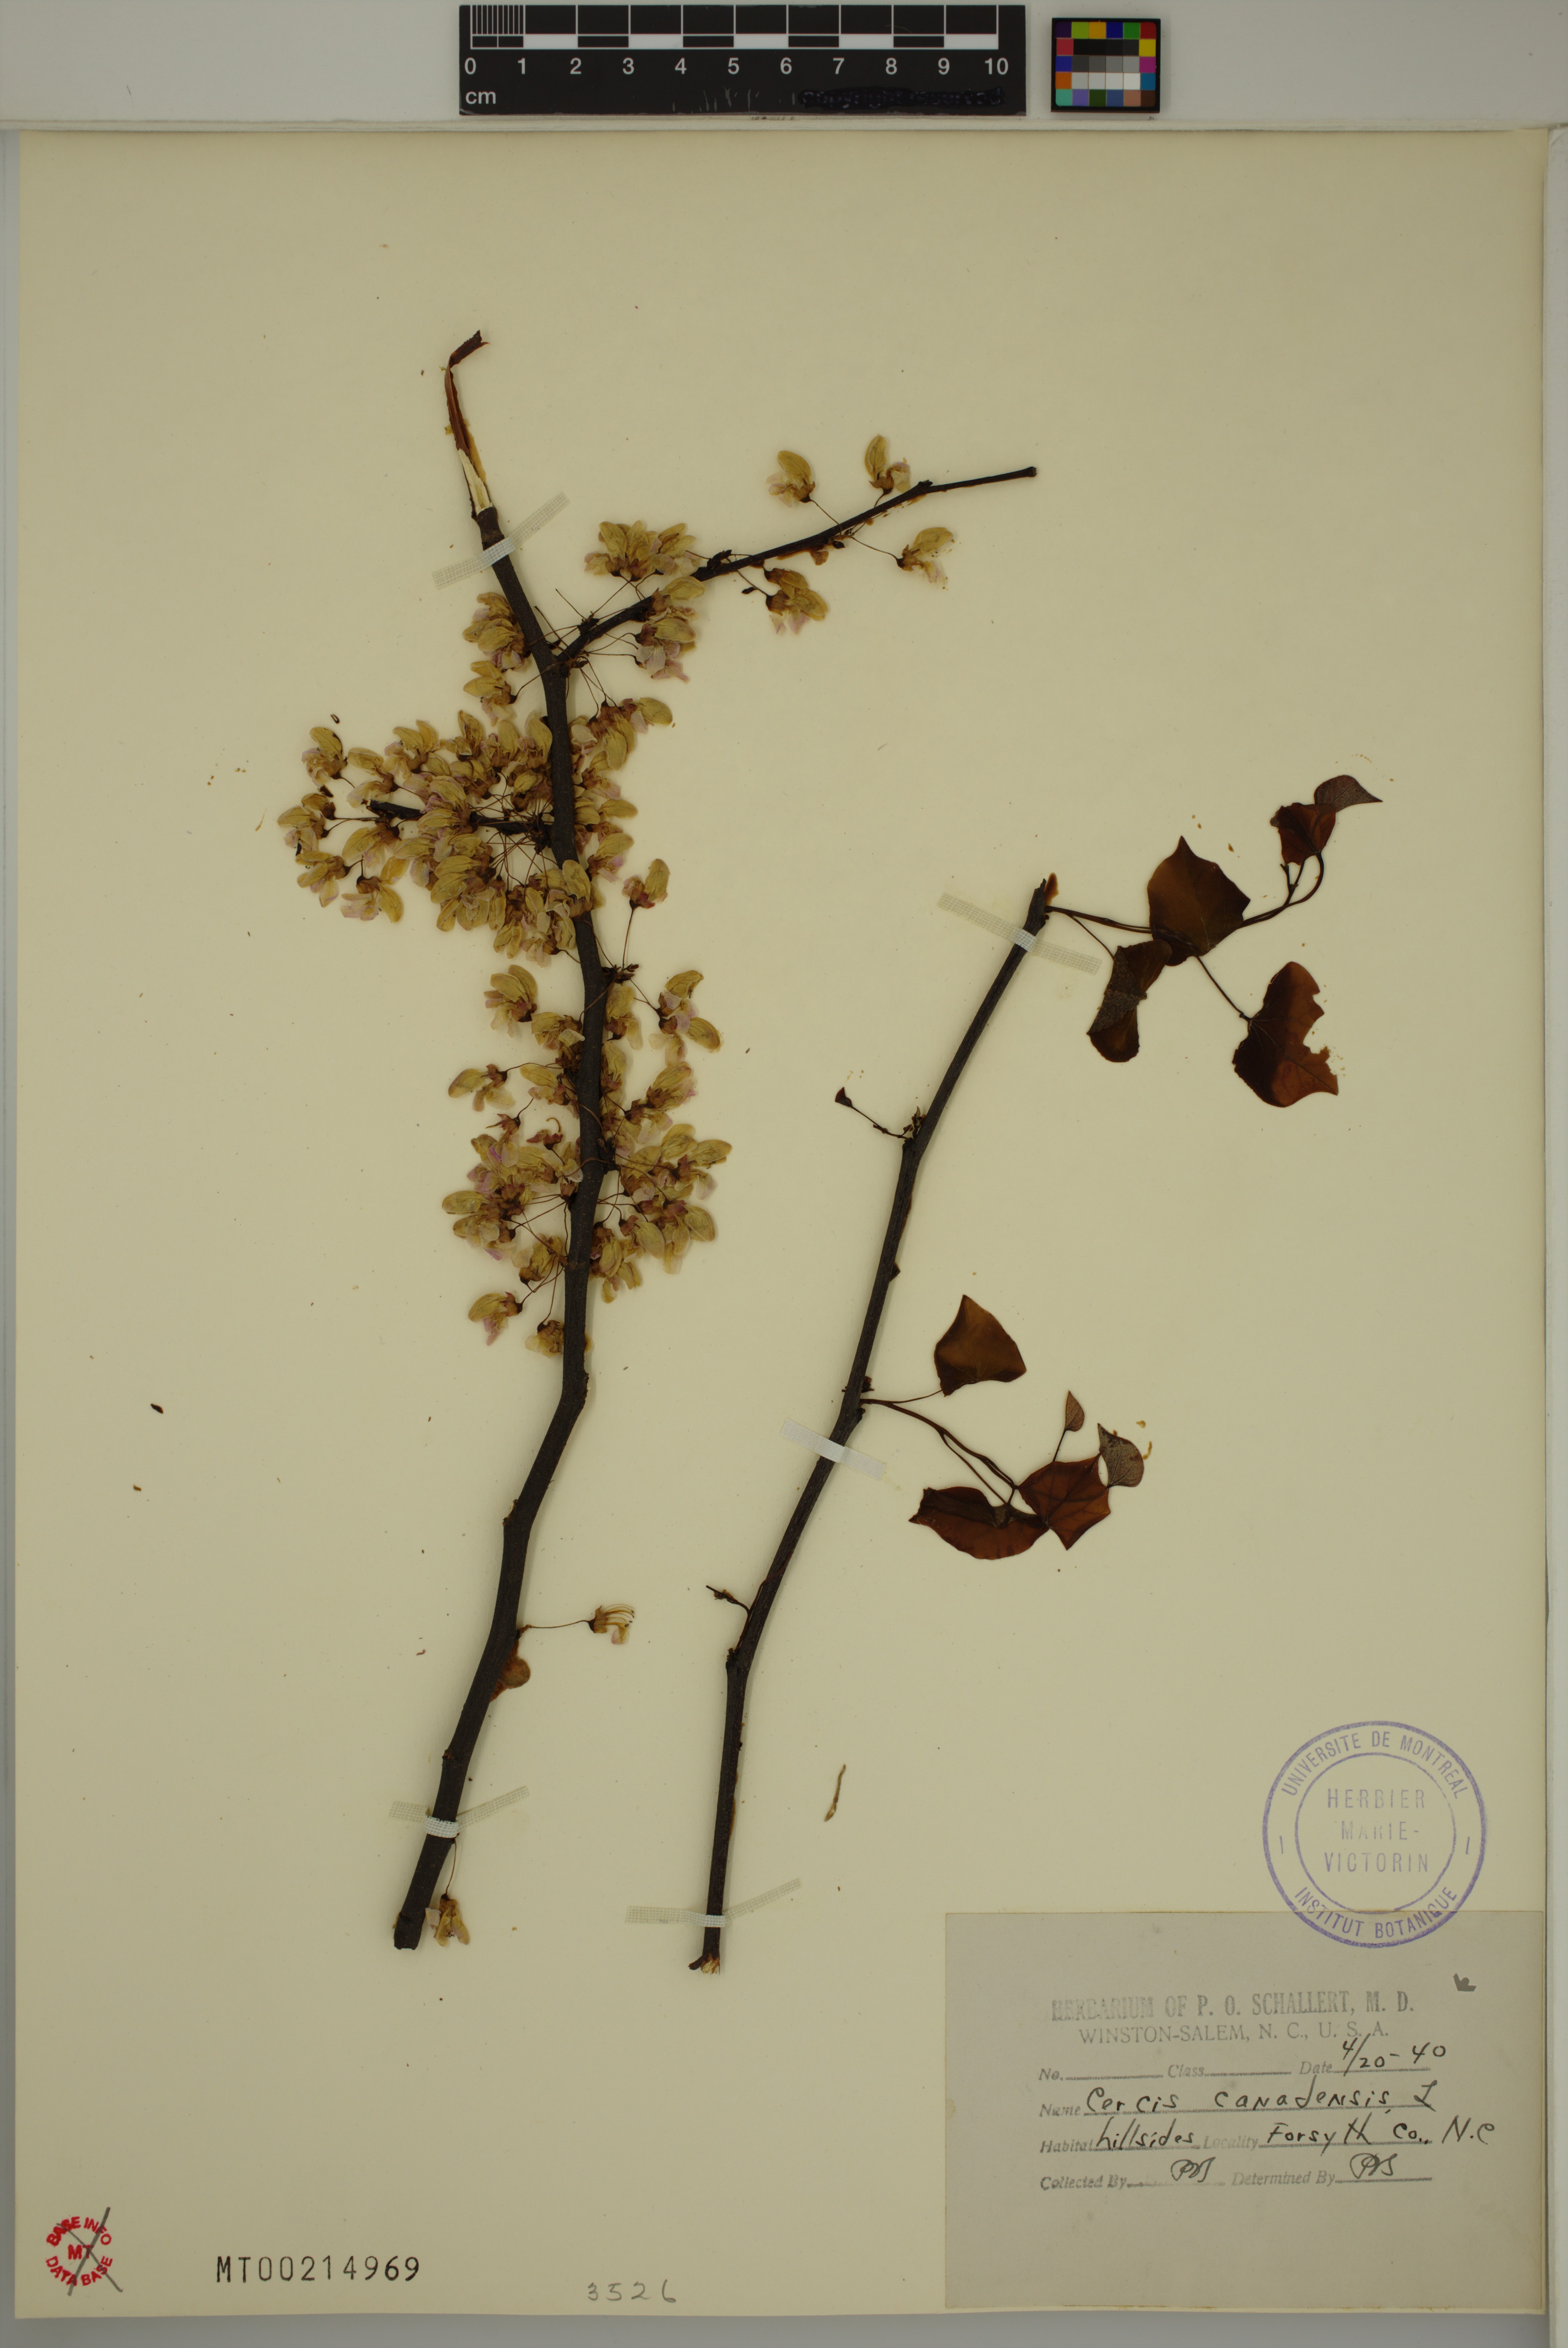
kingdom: Plantae
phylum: Tracheophyta
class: Magnoliopsida
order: Fabales
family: Fabaceae
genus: Cercis
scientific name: Cercis canadensis
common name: Eastern redbud
